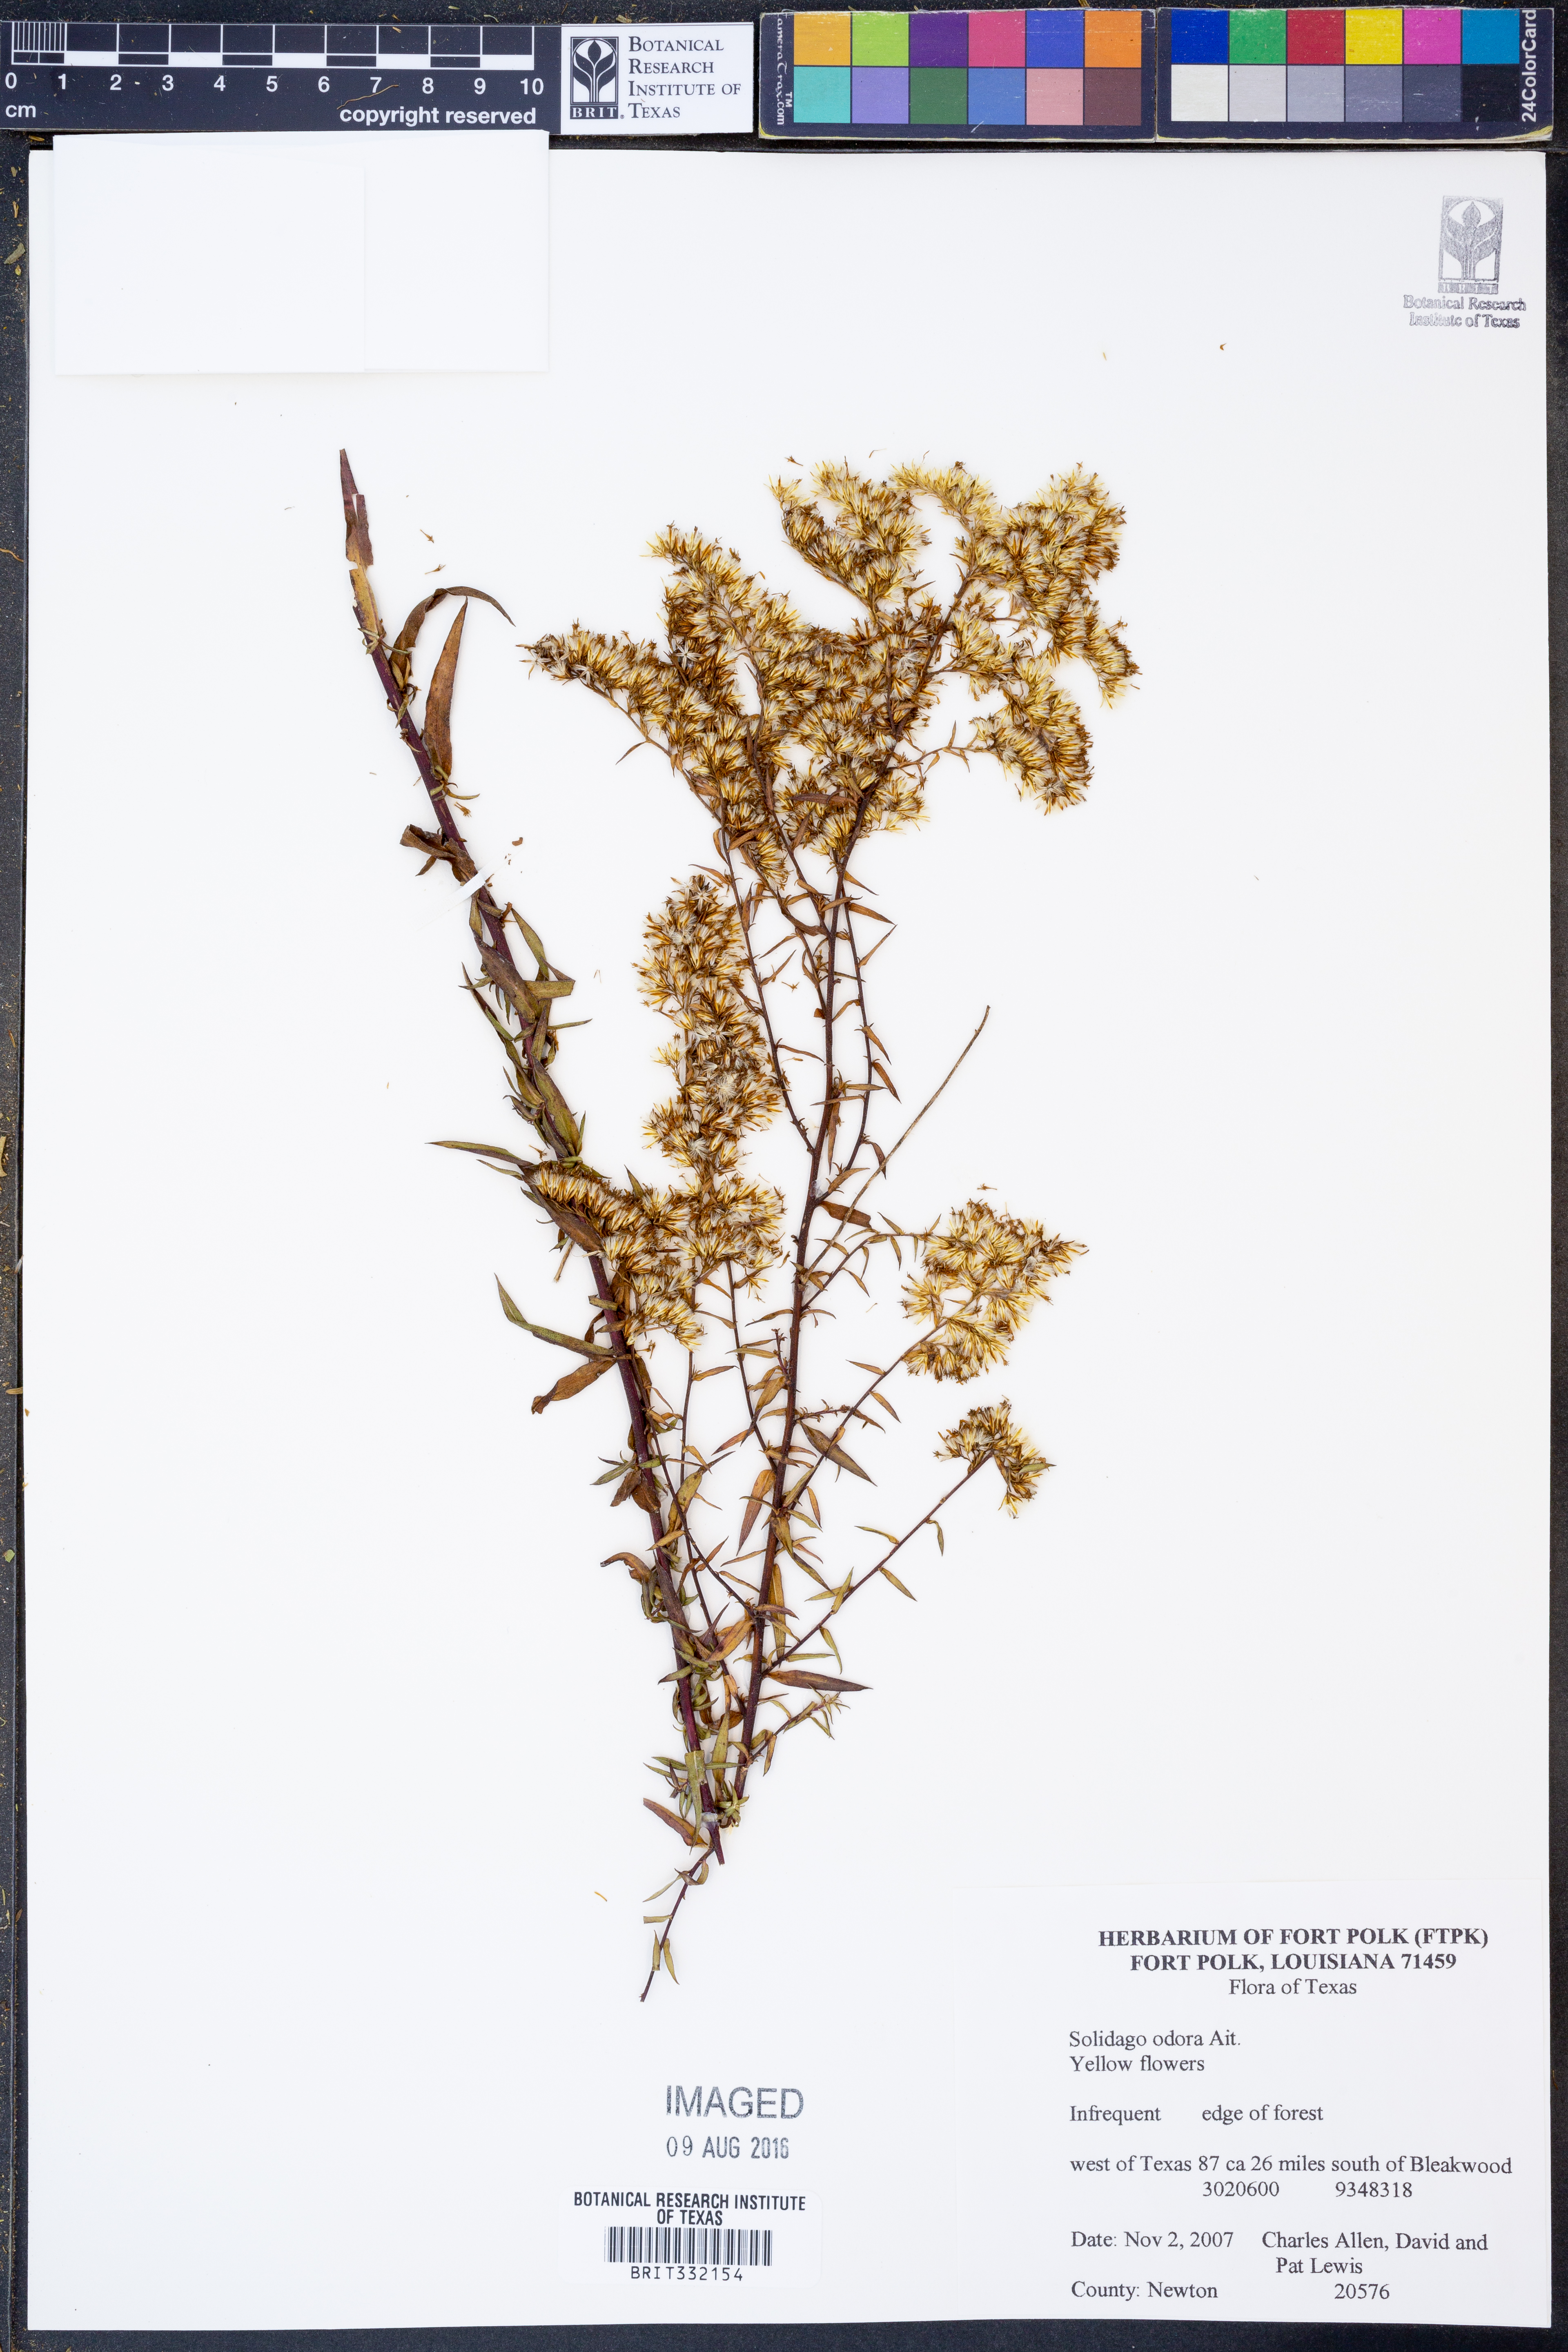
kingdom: Plantae
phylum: Tracheophyta
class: Magnoliopsida
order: Asterales
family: Asteraceae
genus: Solidago
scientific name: Solidago odora
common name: Anise-scented goldenrod
